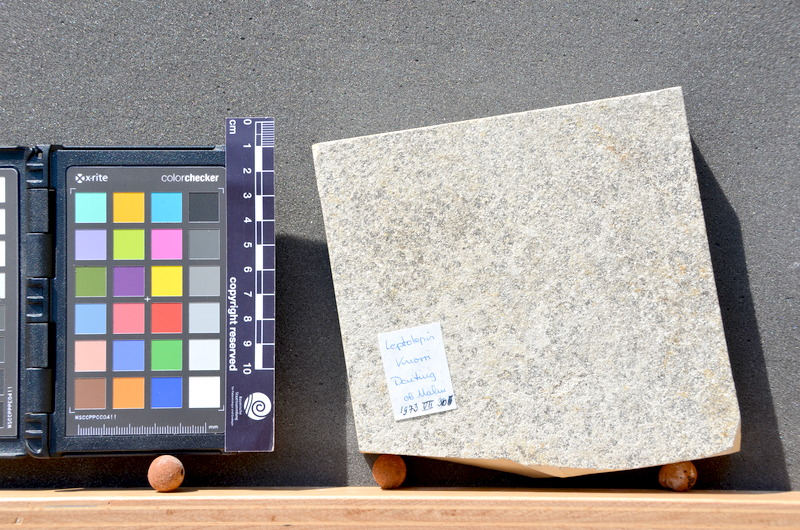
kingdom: Animalia
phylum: Chordata
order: Salmoniformes
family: Orthogonikleithridae
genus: Leptolepides
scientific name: Leptolepides sprattiformis
